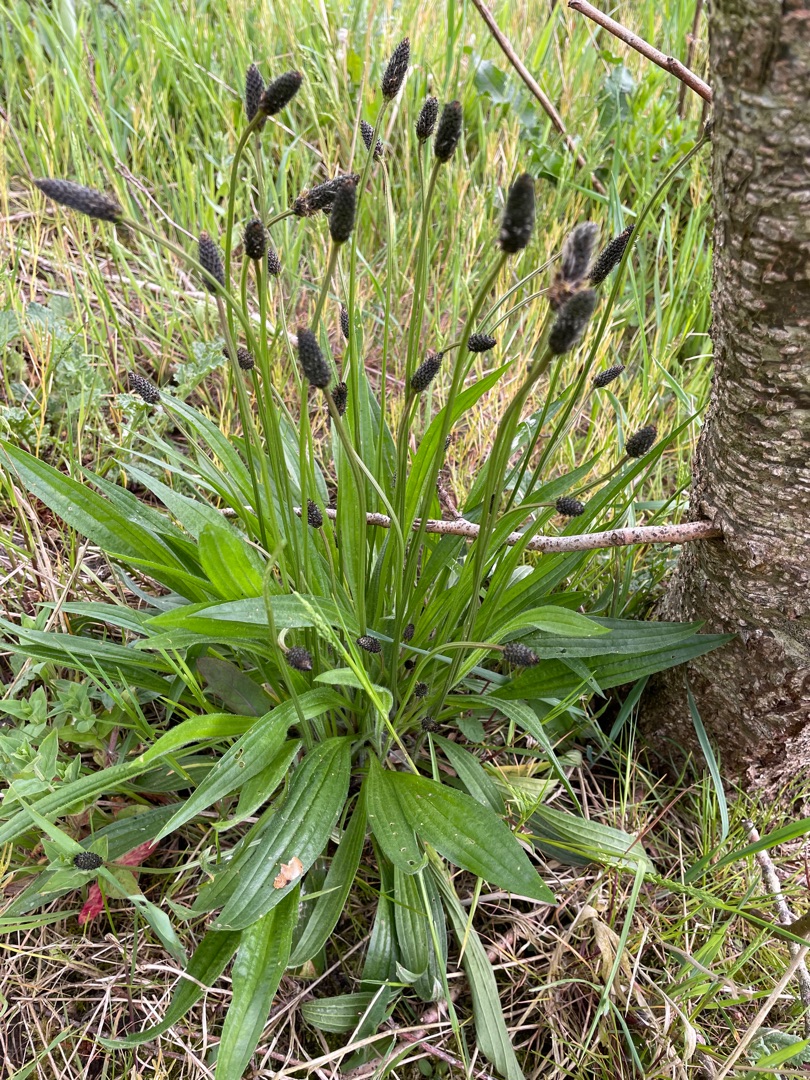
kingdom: Plantae
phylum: Tracheophyta
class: Magnoliopsida
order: Lamiales
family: Plantaginaceae
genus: Plantago
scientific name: Plantago lanceolata
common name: Lancet-vejbred
